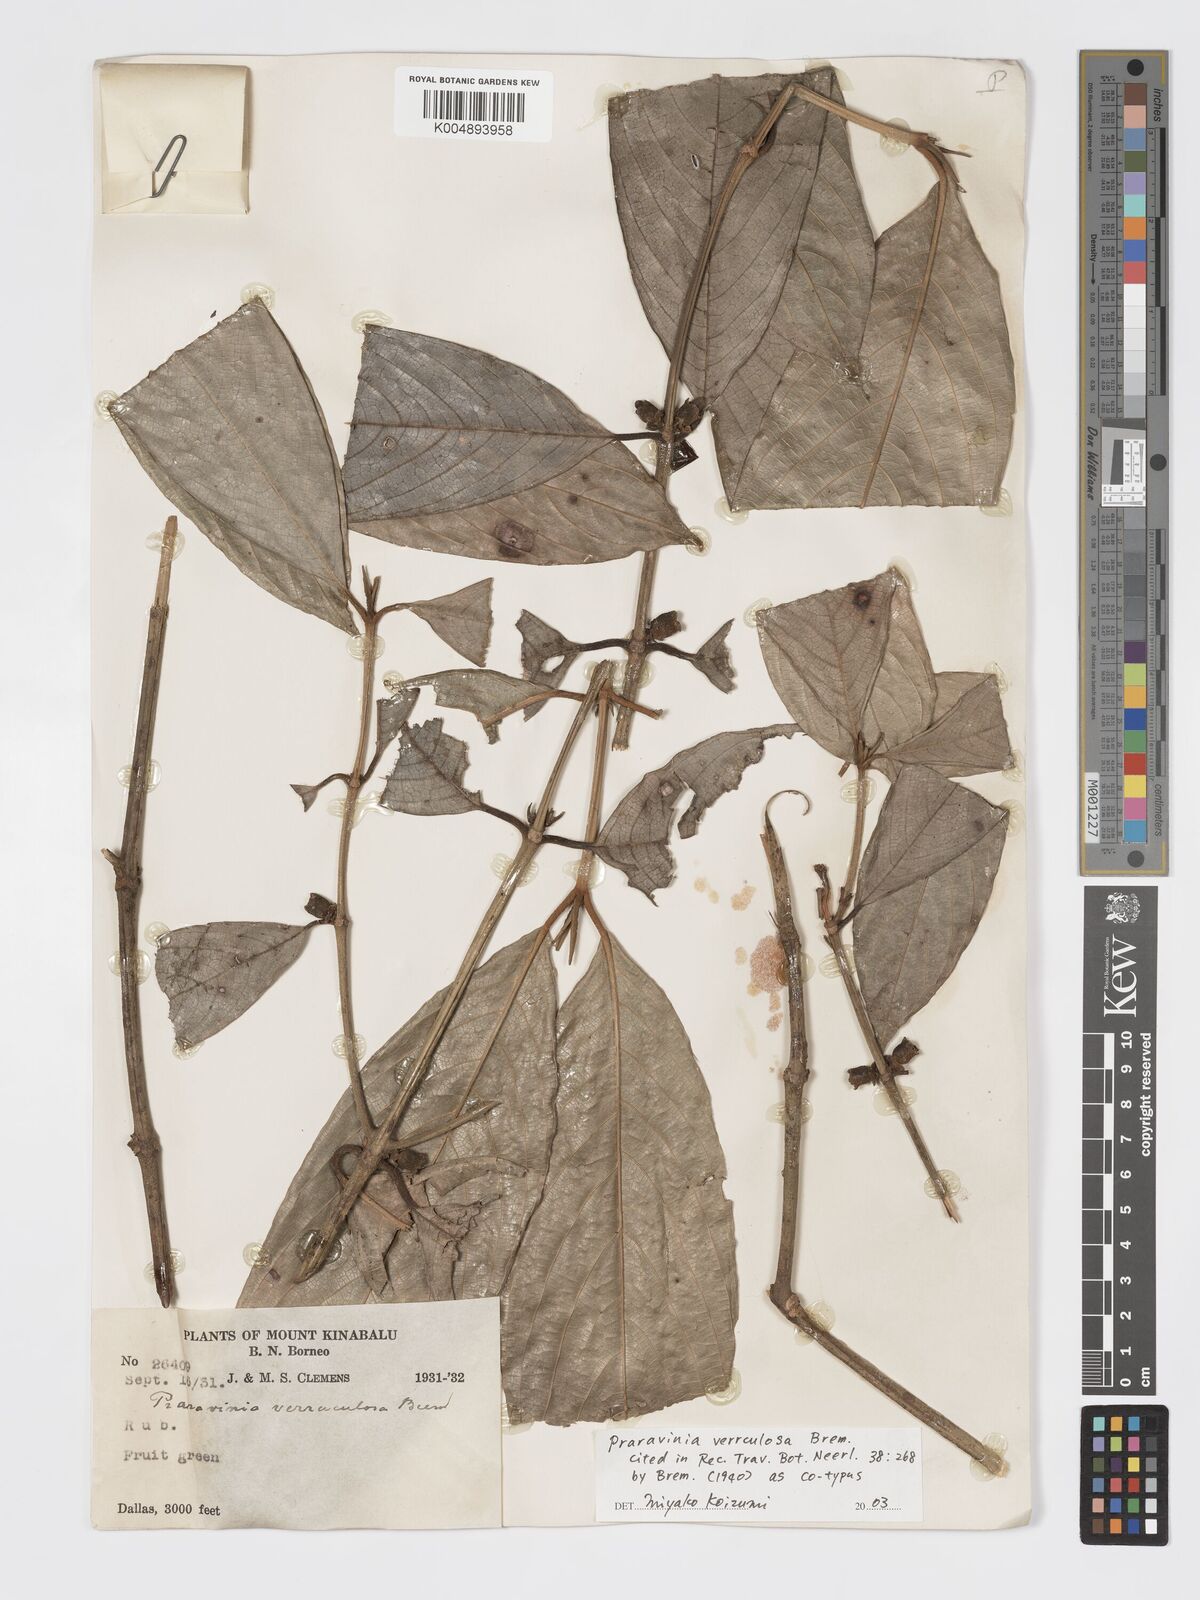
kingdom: Plantae
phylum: Tracheophyta
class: Magnoliopsida
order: Gentianales
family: Rubiaceae
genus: Praravinia
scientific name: Praravinia verruculosa
